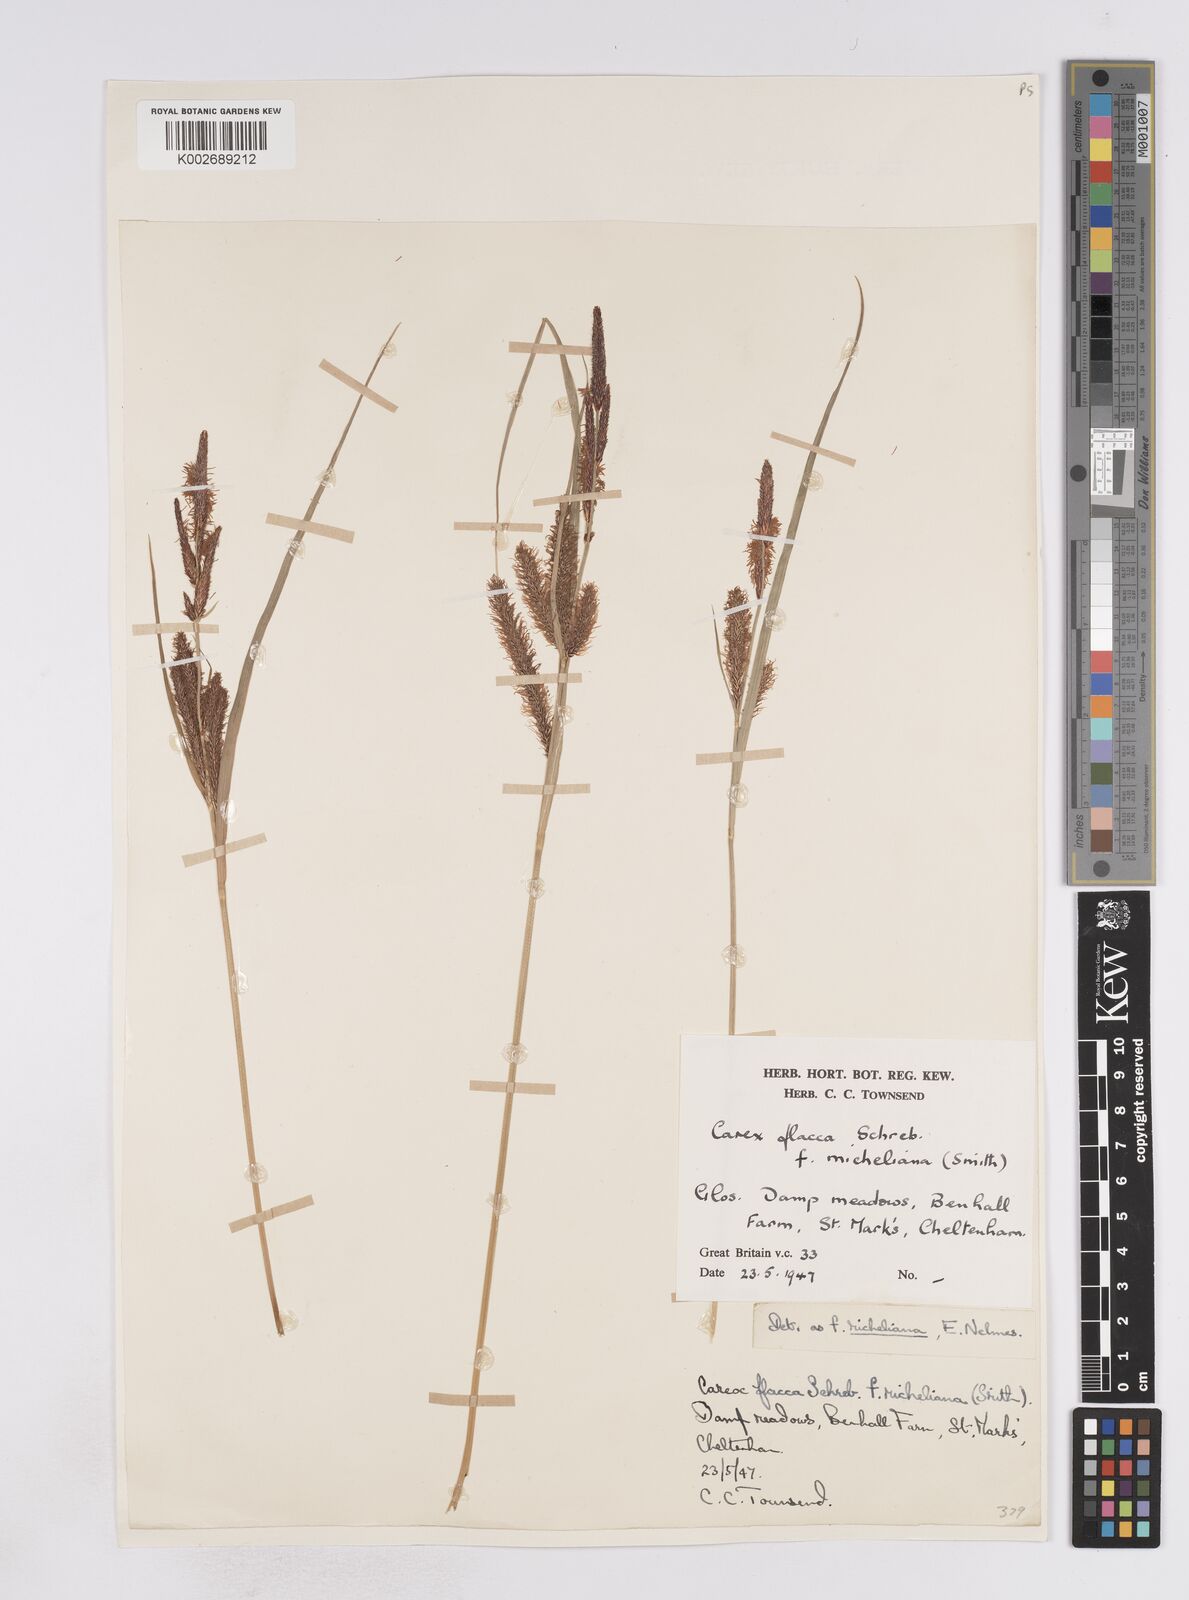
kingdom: Plantae
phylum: Tracheophyta
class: Liliopsida
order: Poales
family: Cyperaceae
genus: Carex
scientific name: Carex flacca
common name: Glaucous sedge
